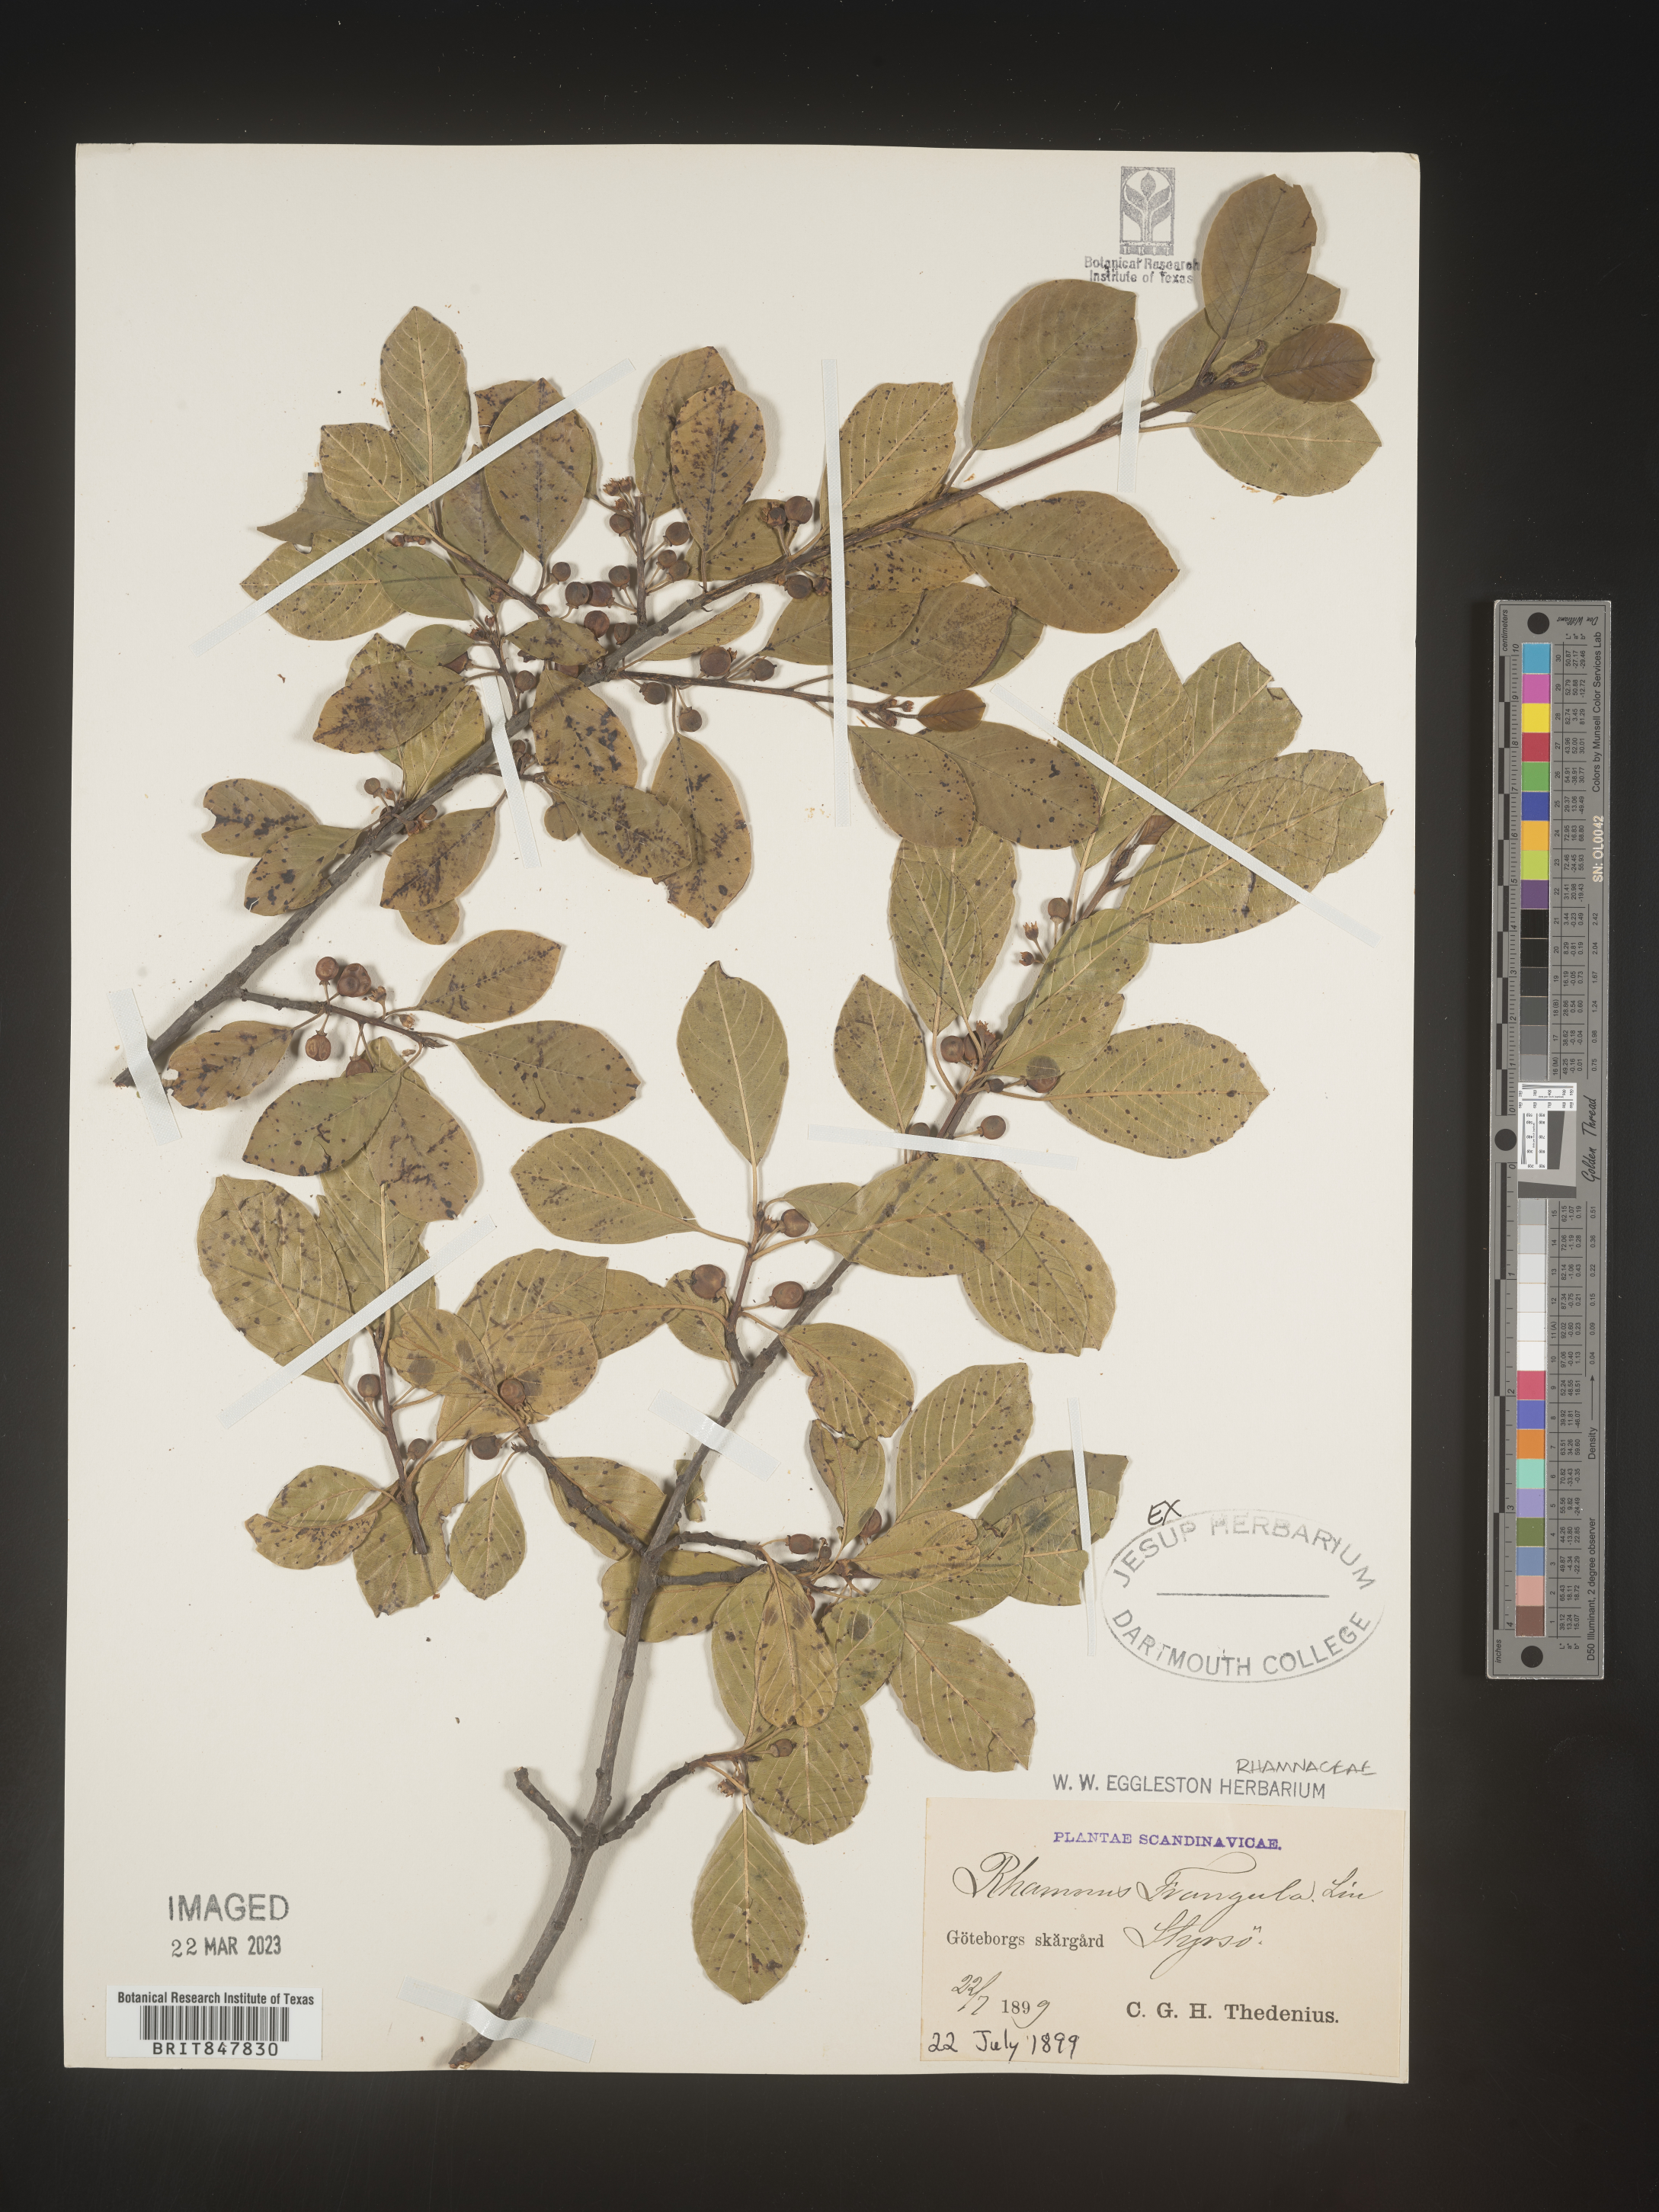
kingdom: Plantae
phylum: Tracheophyta
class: Magnoliopsida
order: Rosales
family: Rhamnaceae
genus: Rhamnus
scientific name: Rhamnus
